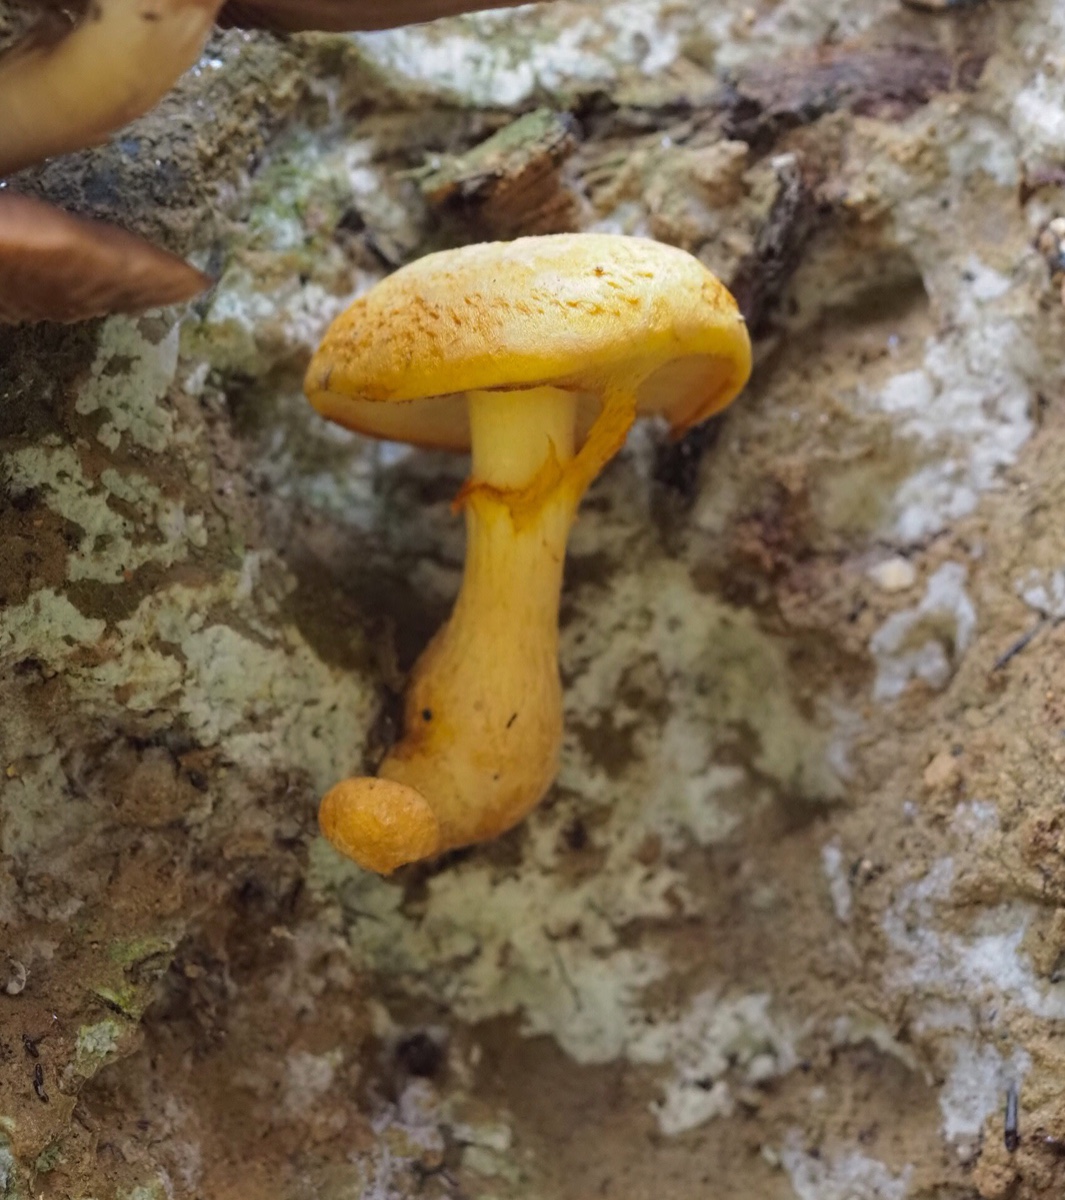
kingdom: Fungi
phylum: Basidiomycota
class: Agaricomycetes
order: Agaricales
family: Hymenogastraceae
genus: Gymnopilus
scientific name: Gymnopilus spectabilis
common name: fibret flammehat
